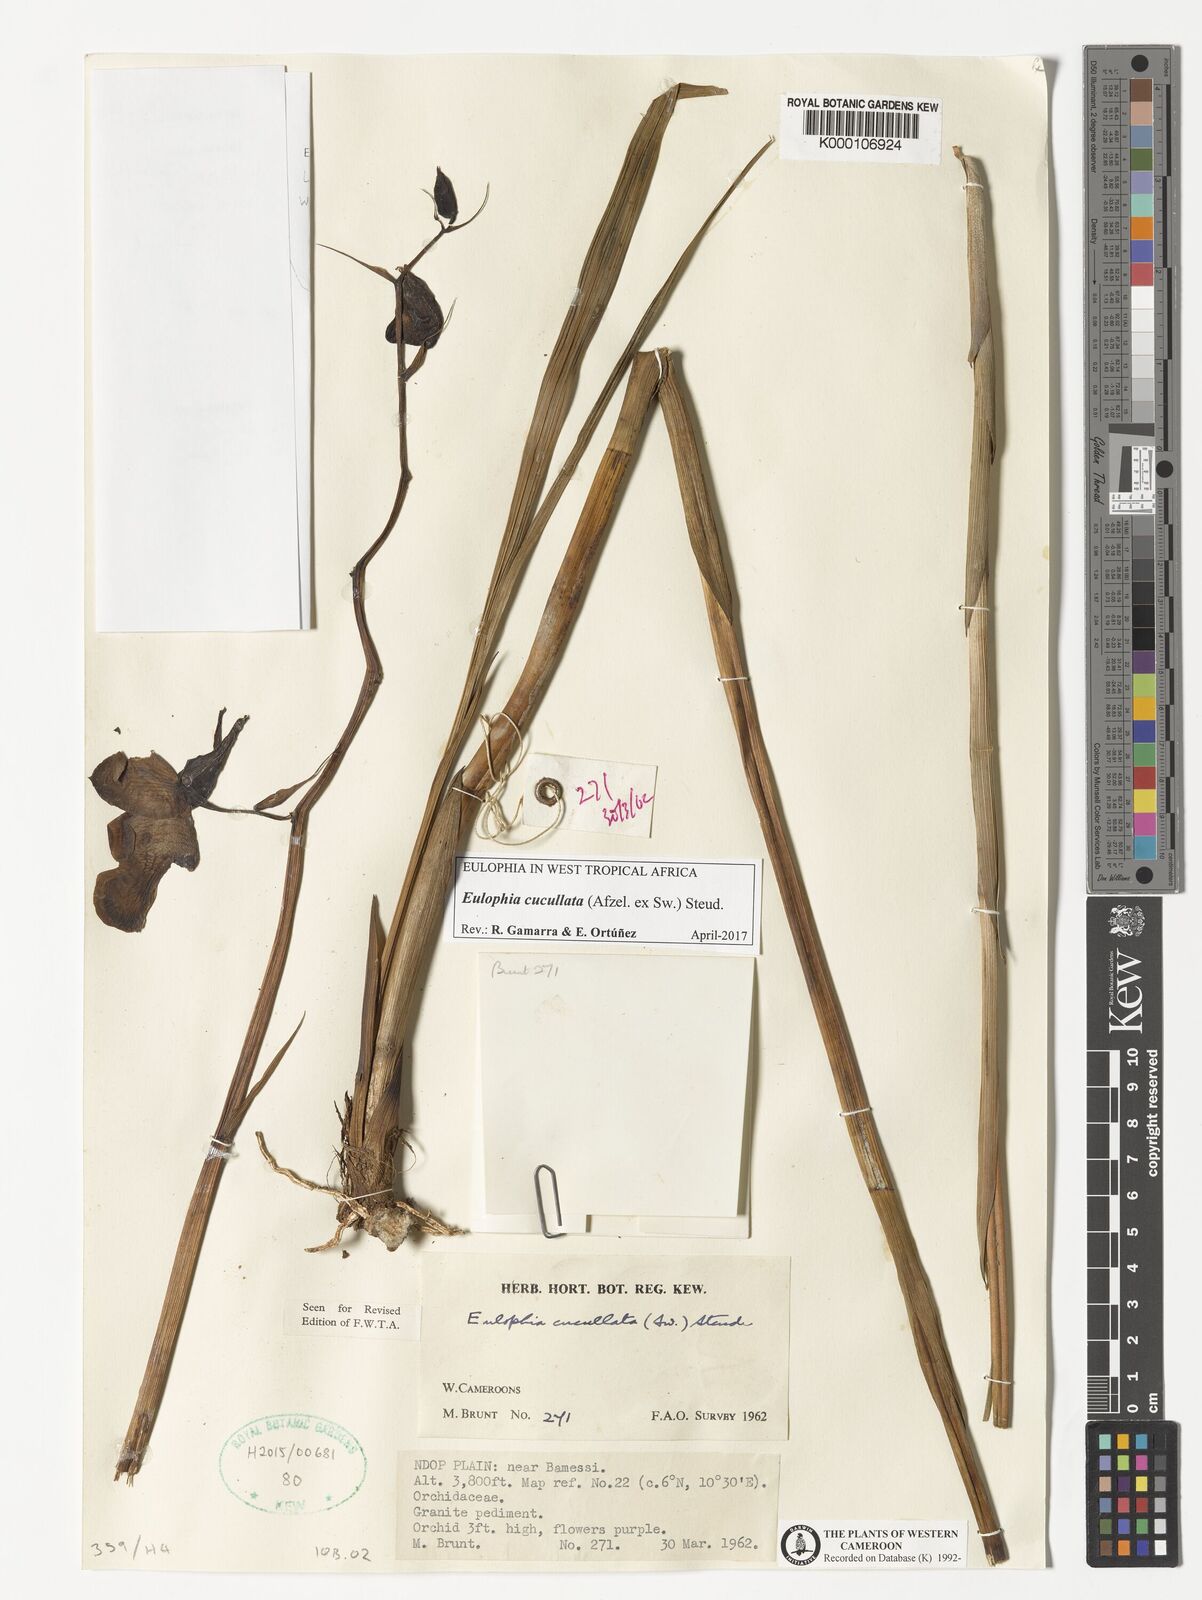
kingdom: Plantae
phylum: Tracheophyta
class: Liliopsida
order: Asparagales
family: Orchidaceae
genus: Eulophia
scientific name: Eulophia cucullata
